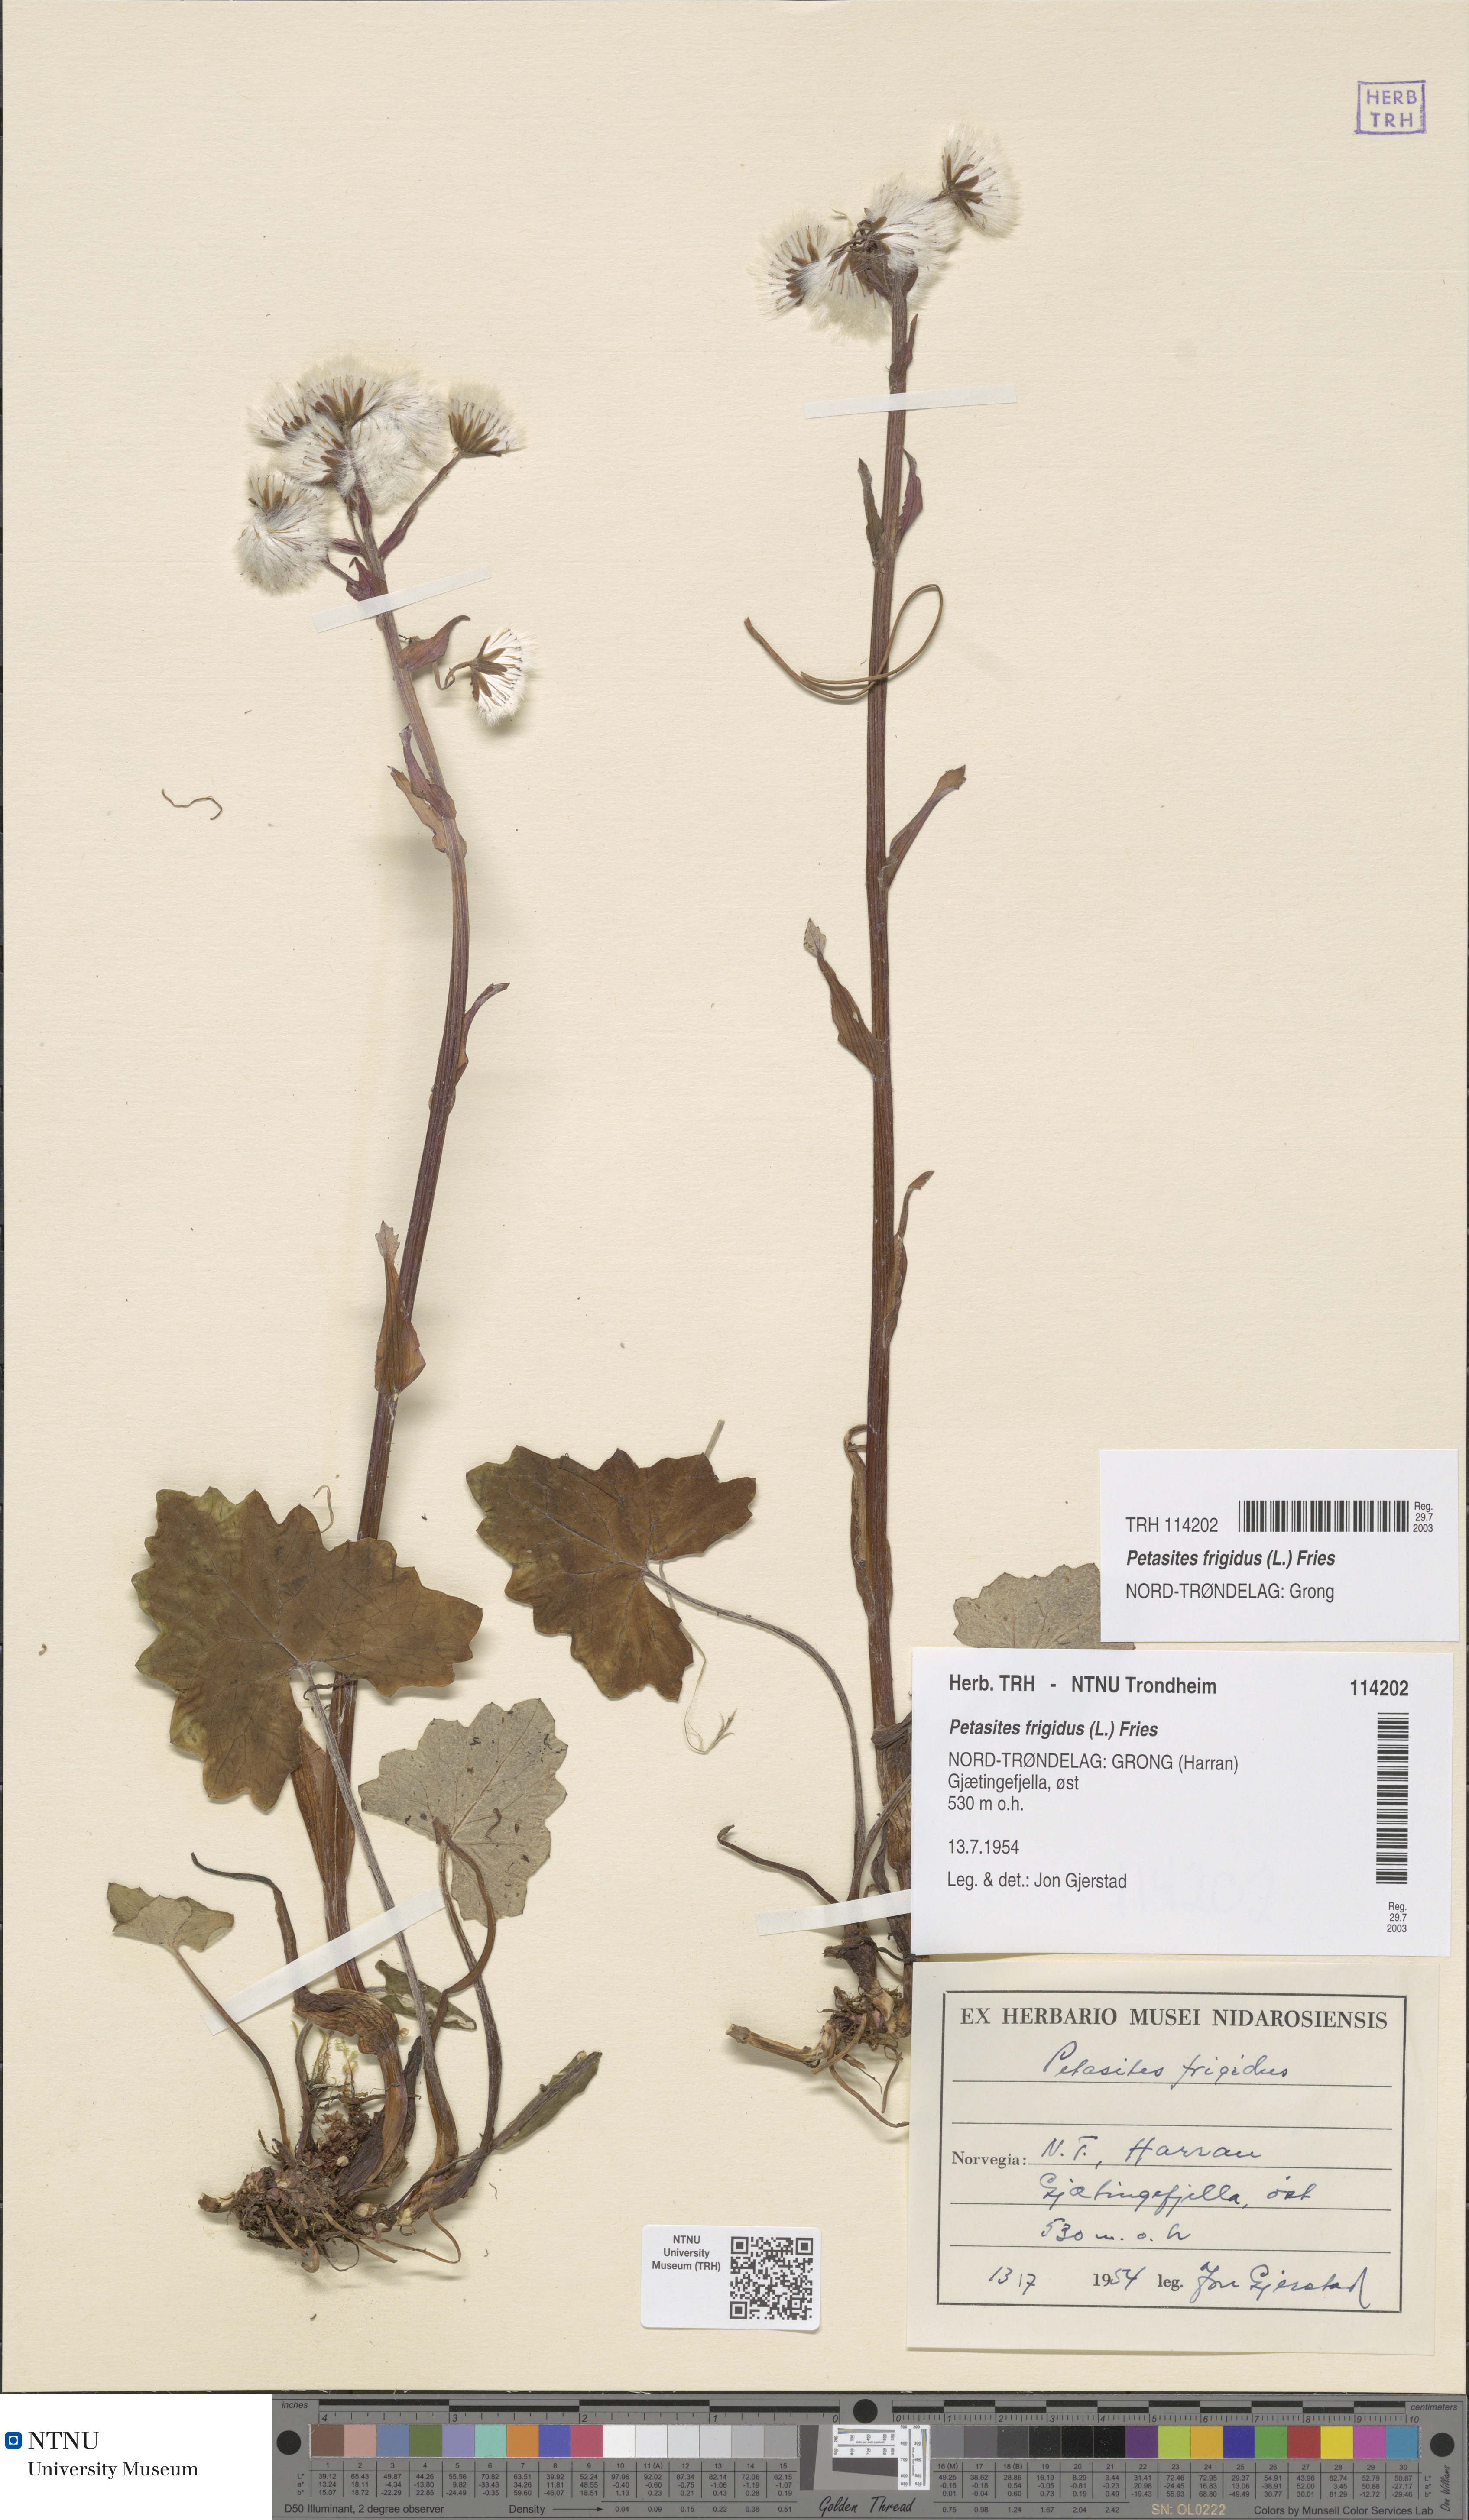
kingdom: Plantae
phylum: Tracheophyta
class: Magnoliopsida
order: Asterales
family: Asteraceae
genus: Petasites
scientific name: Petasites frigidus
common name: Arctic butterbur
